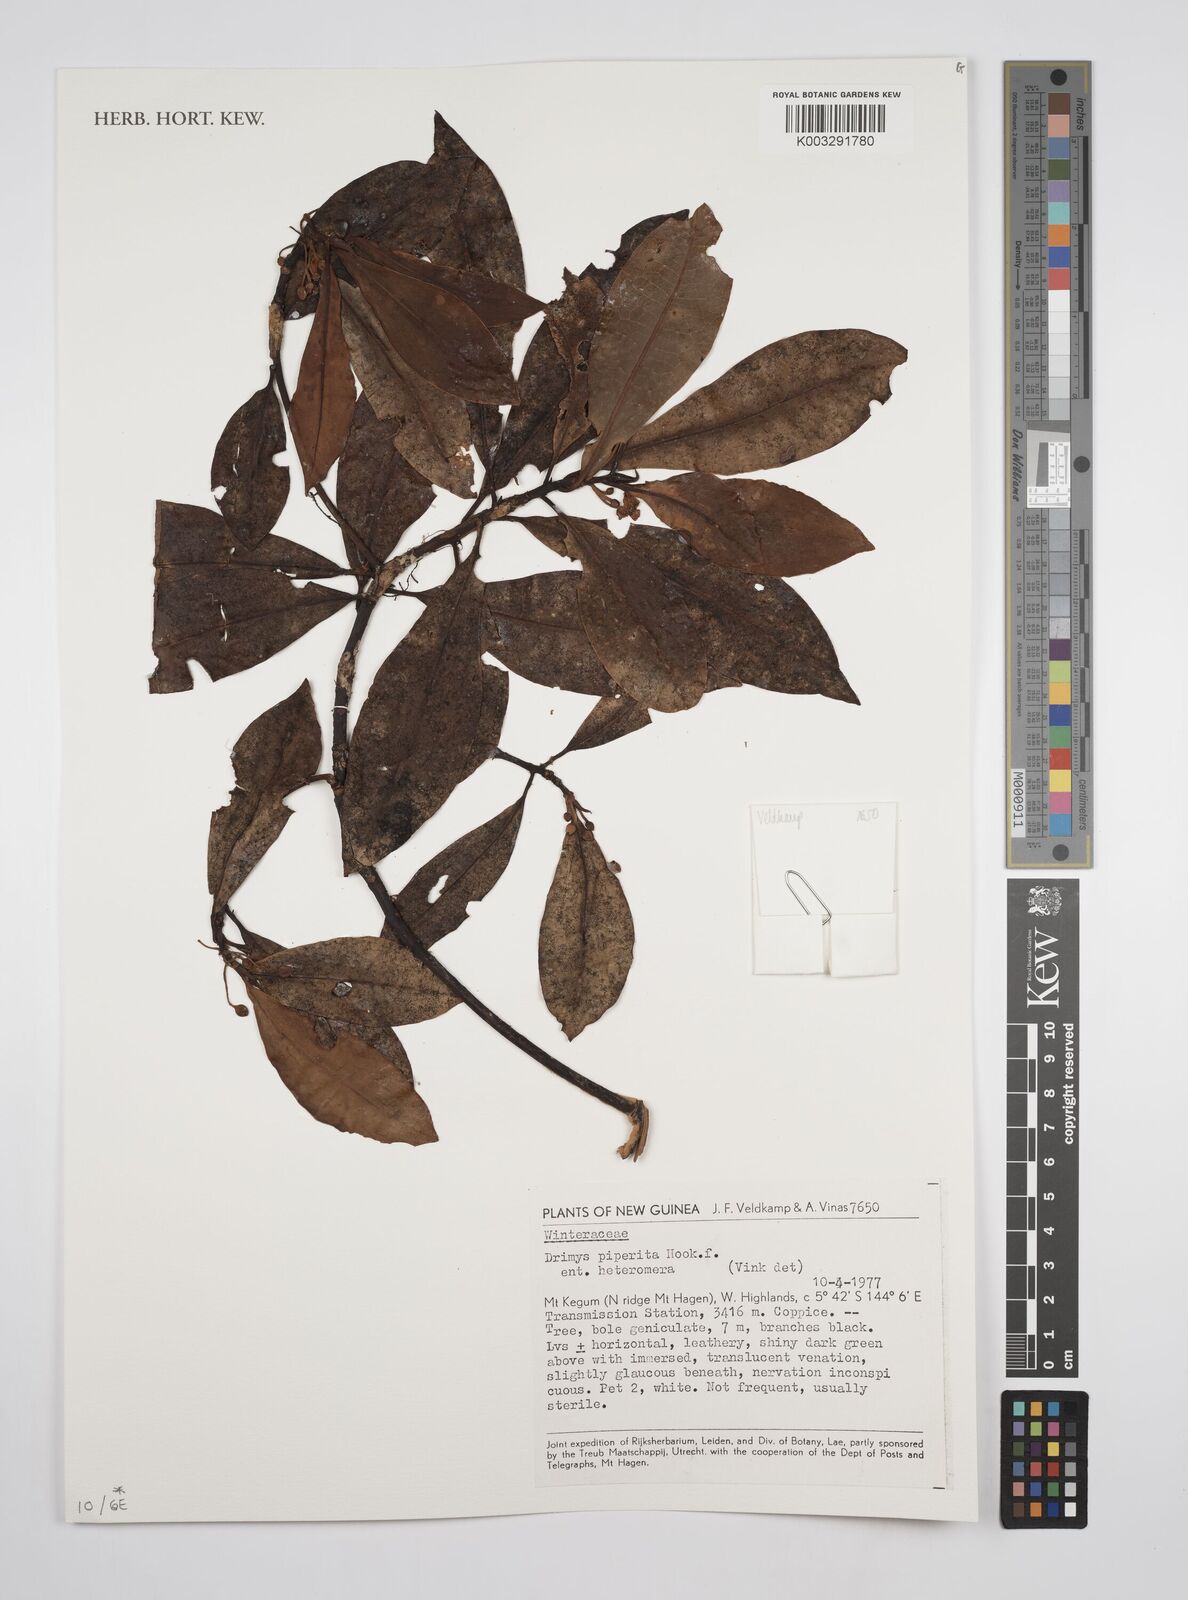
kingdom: Plantae
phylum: Tracheophyta
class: Magnoliopsida
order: Canellales
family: Winteraceae
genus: Drimys
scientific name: Drimys piperita
